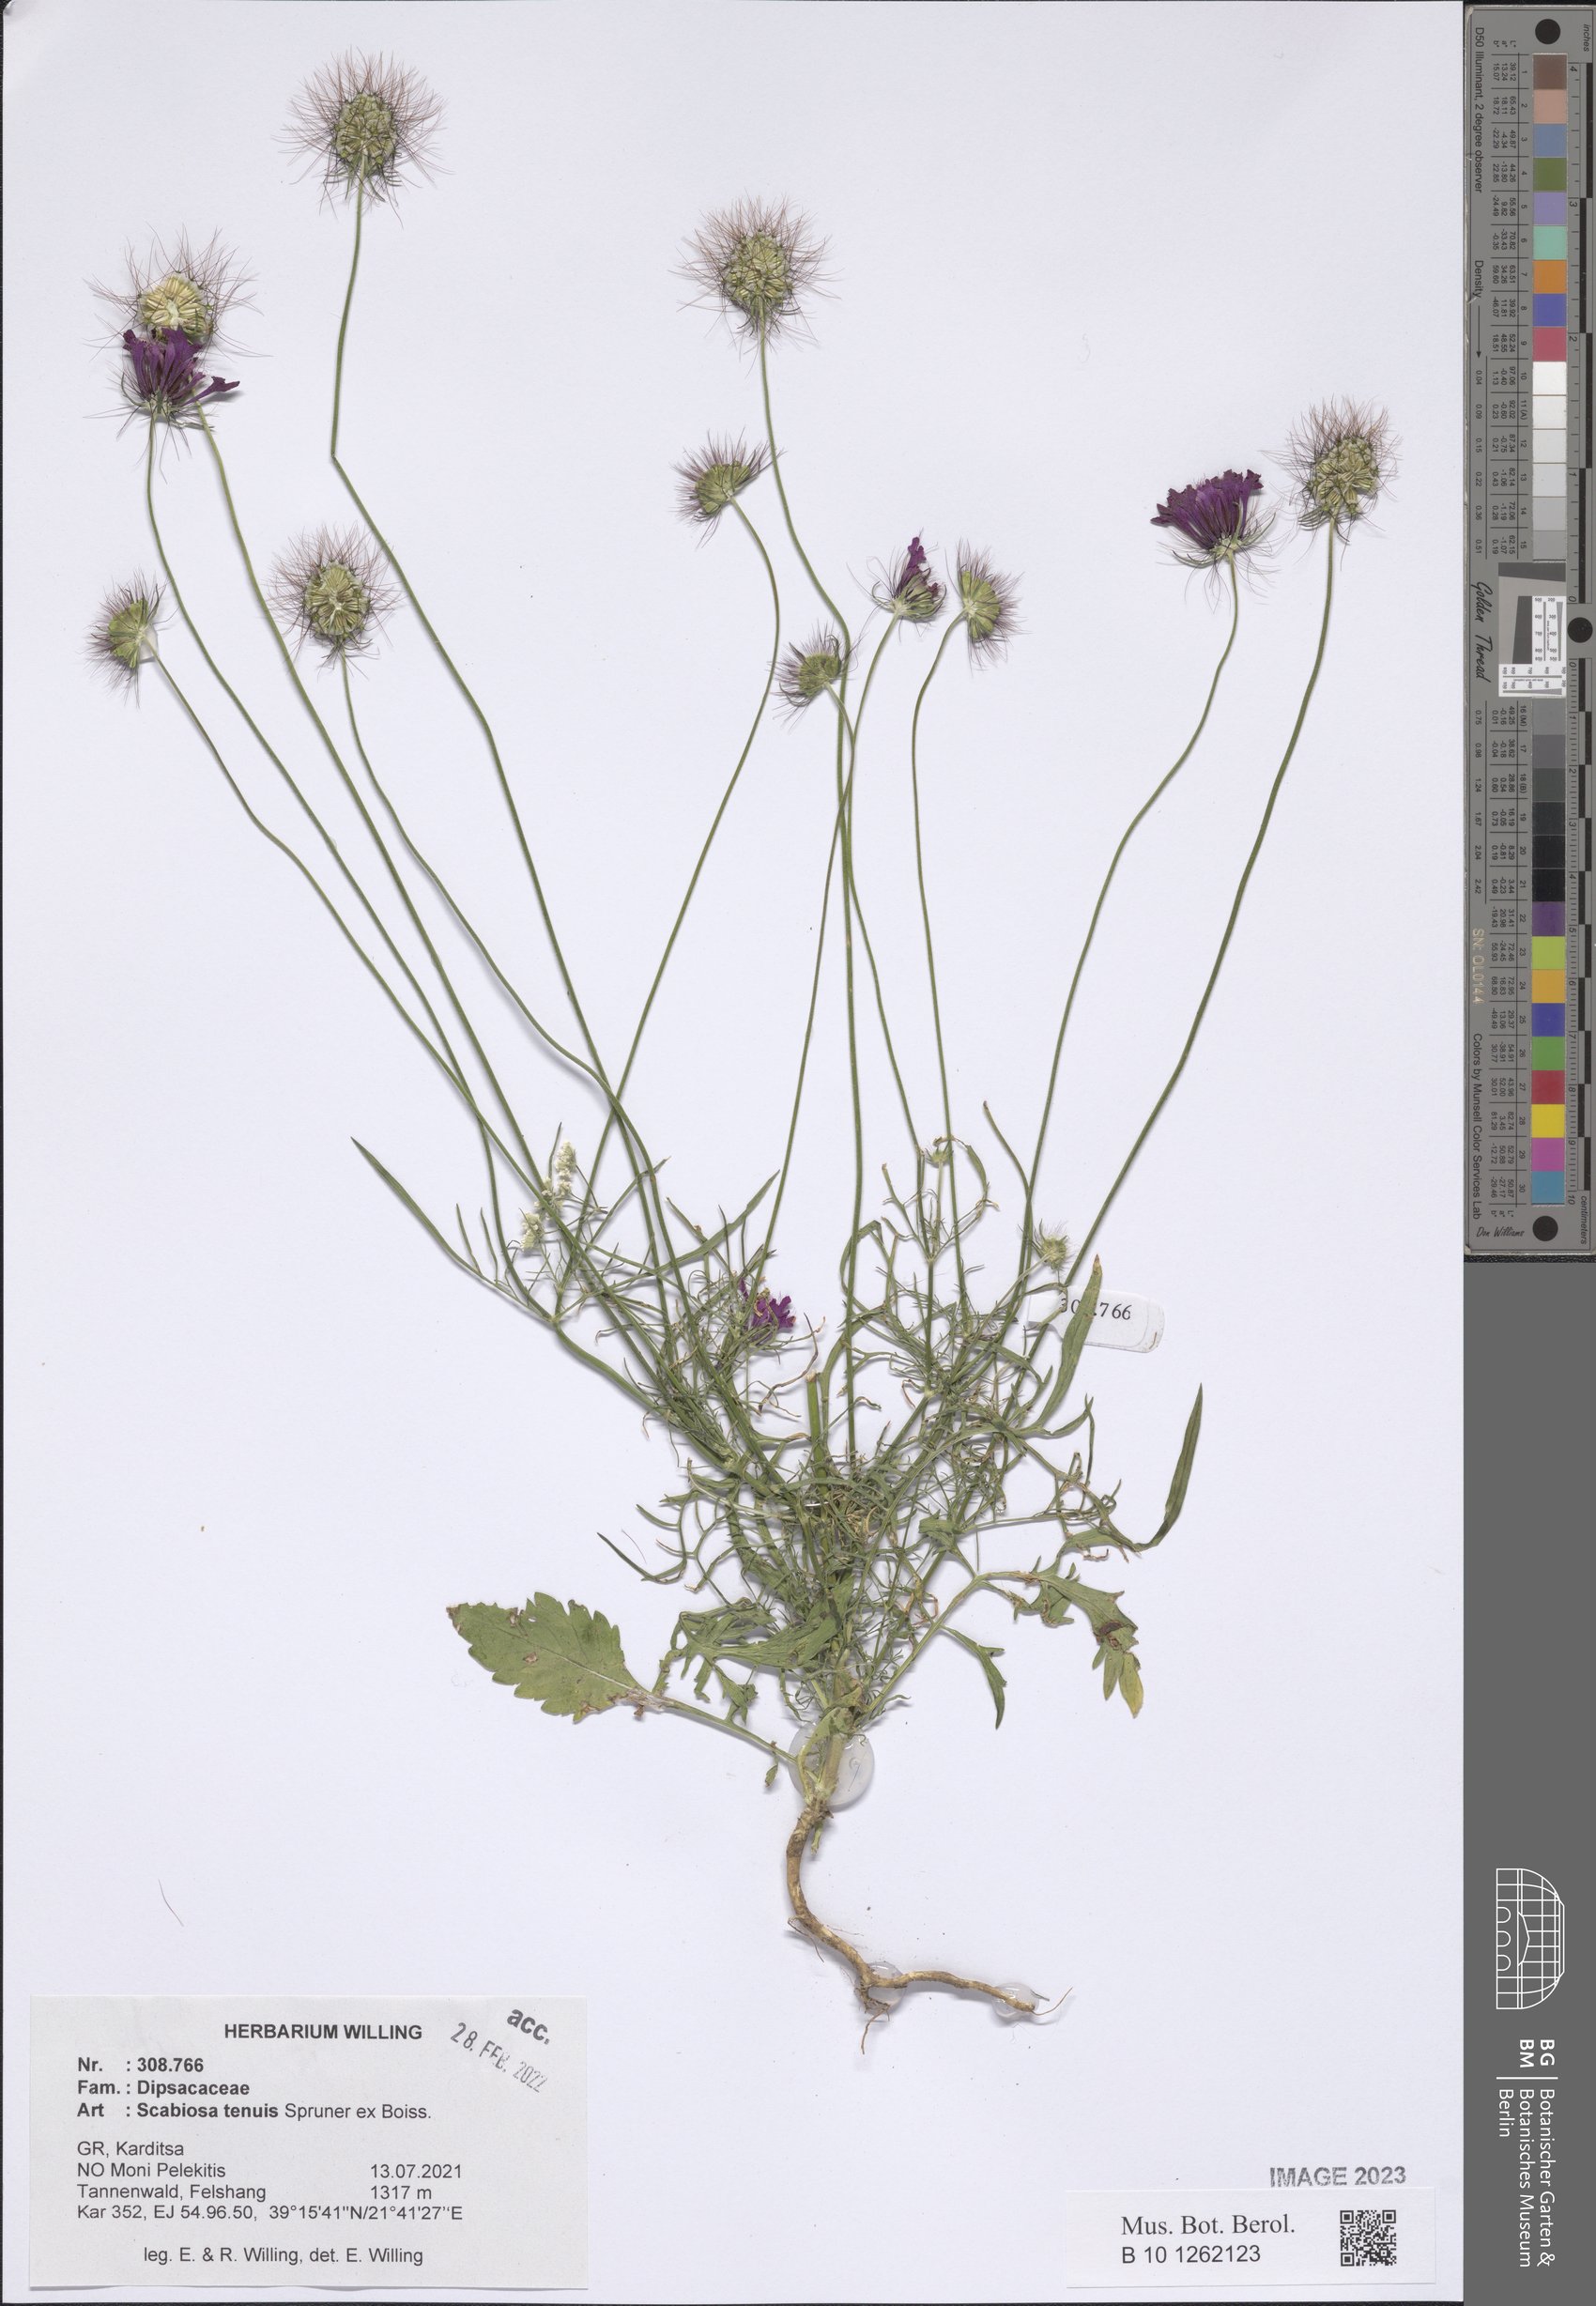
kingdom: Plantae
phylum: Tracheophyta
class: Magnoliopsida
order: Dipsacales
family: Caprifoliaceae
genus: Scabiosa
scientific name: Scabiosa tenuis
